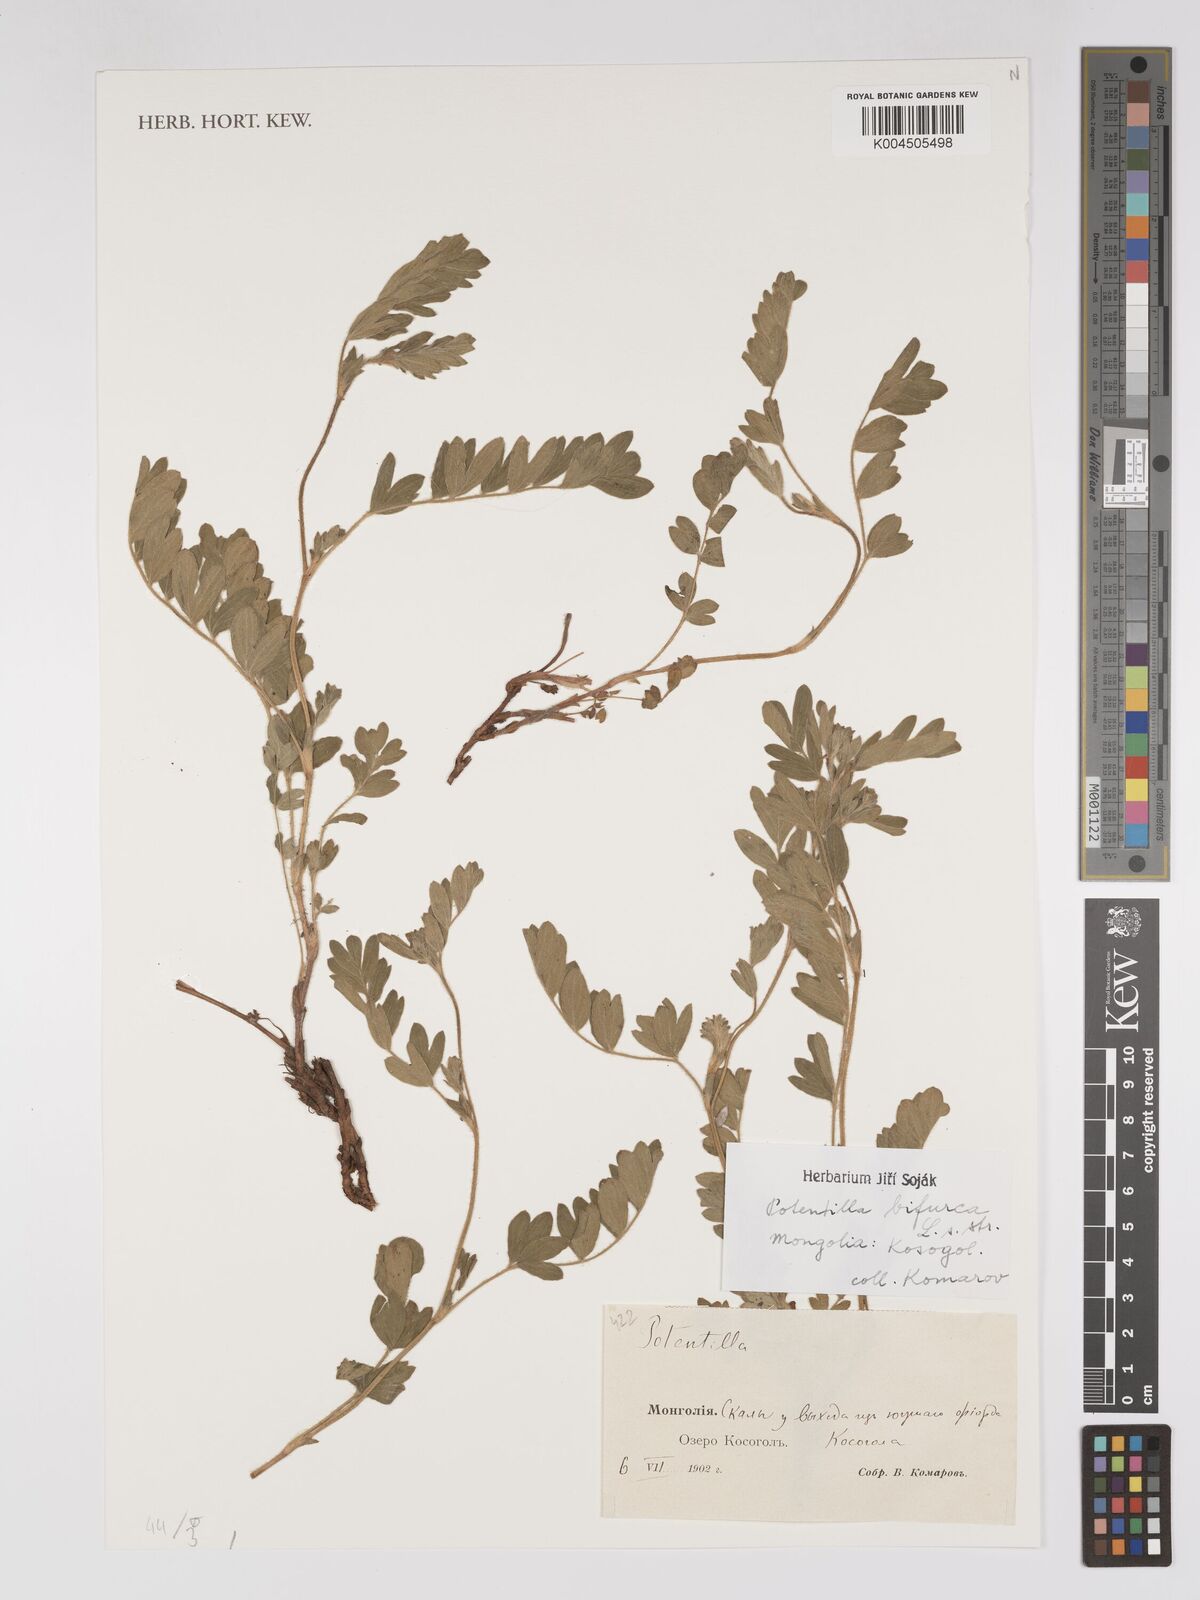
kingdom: Plantae
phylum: Tracheophyta
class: Magnoliopsida
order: Rosales
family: Rosaceae
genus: Sibbaldianthe
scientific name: Sibbaldianthe bifurca
